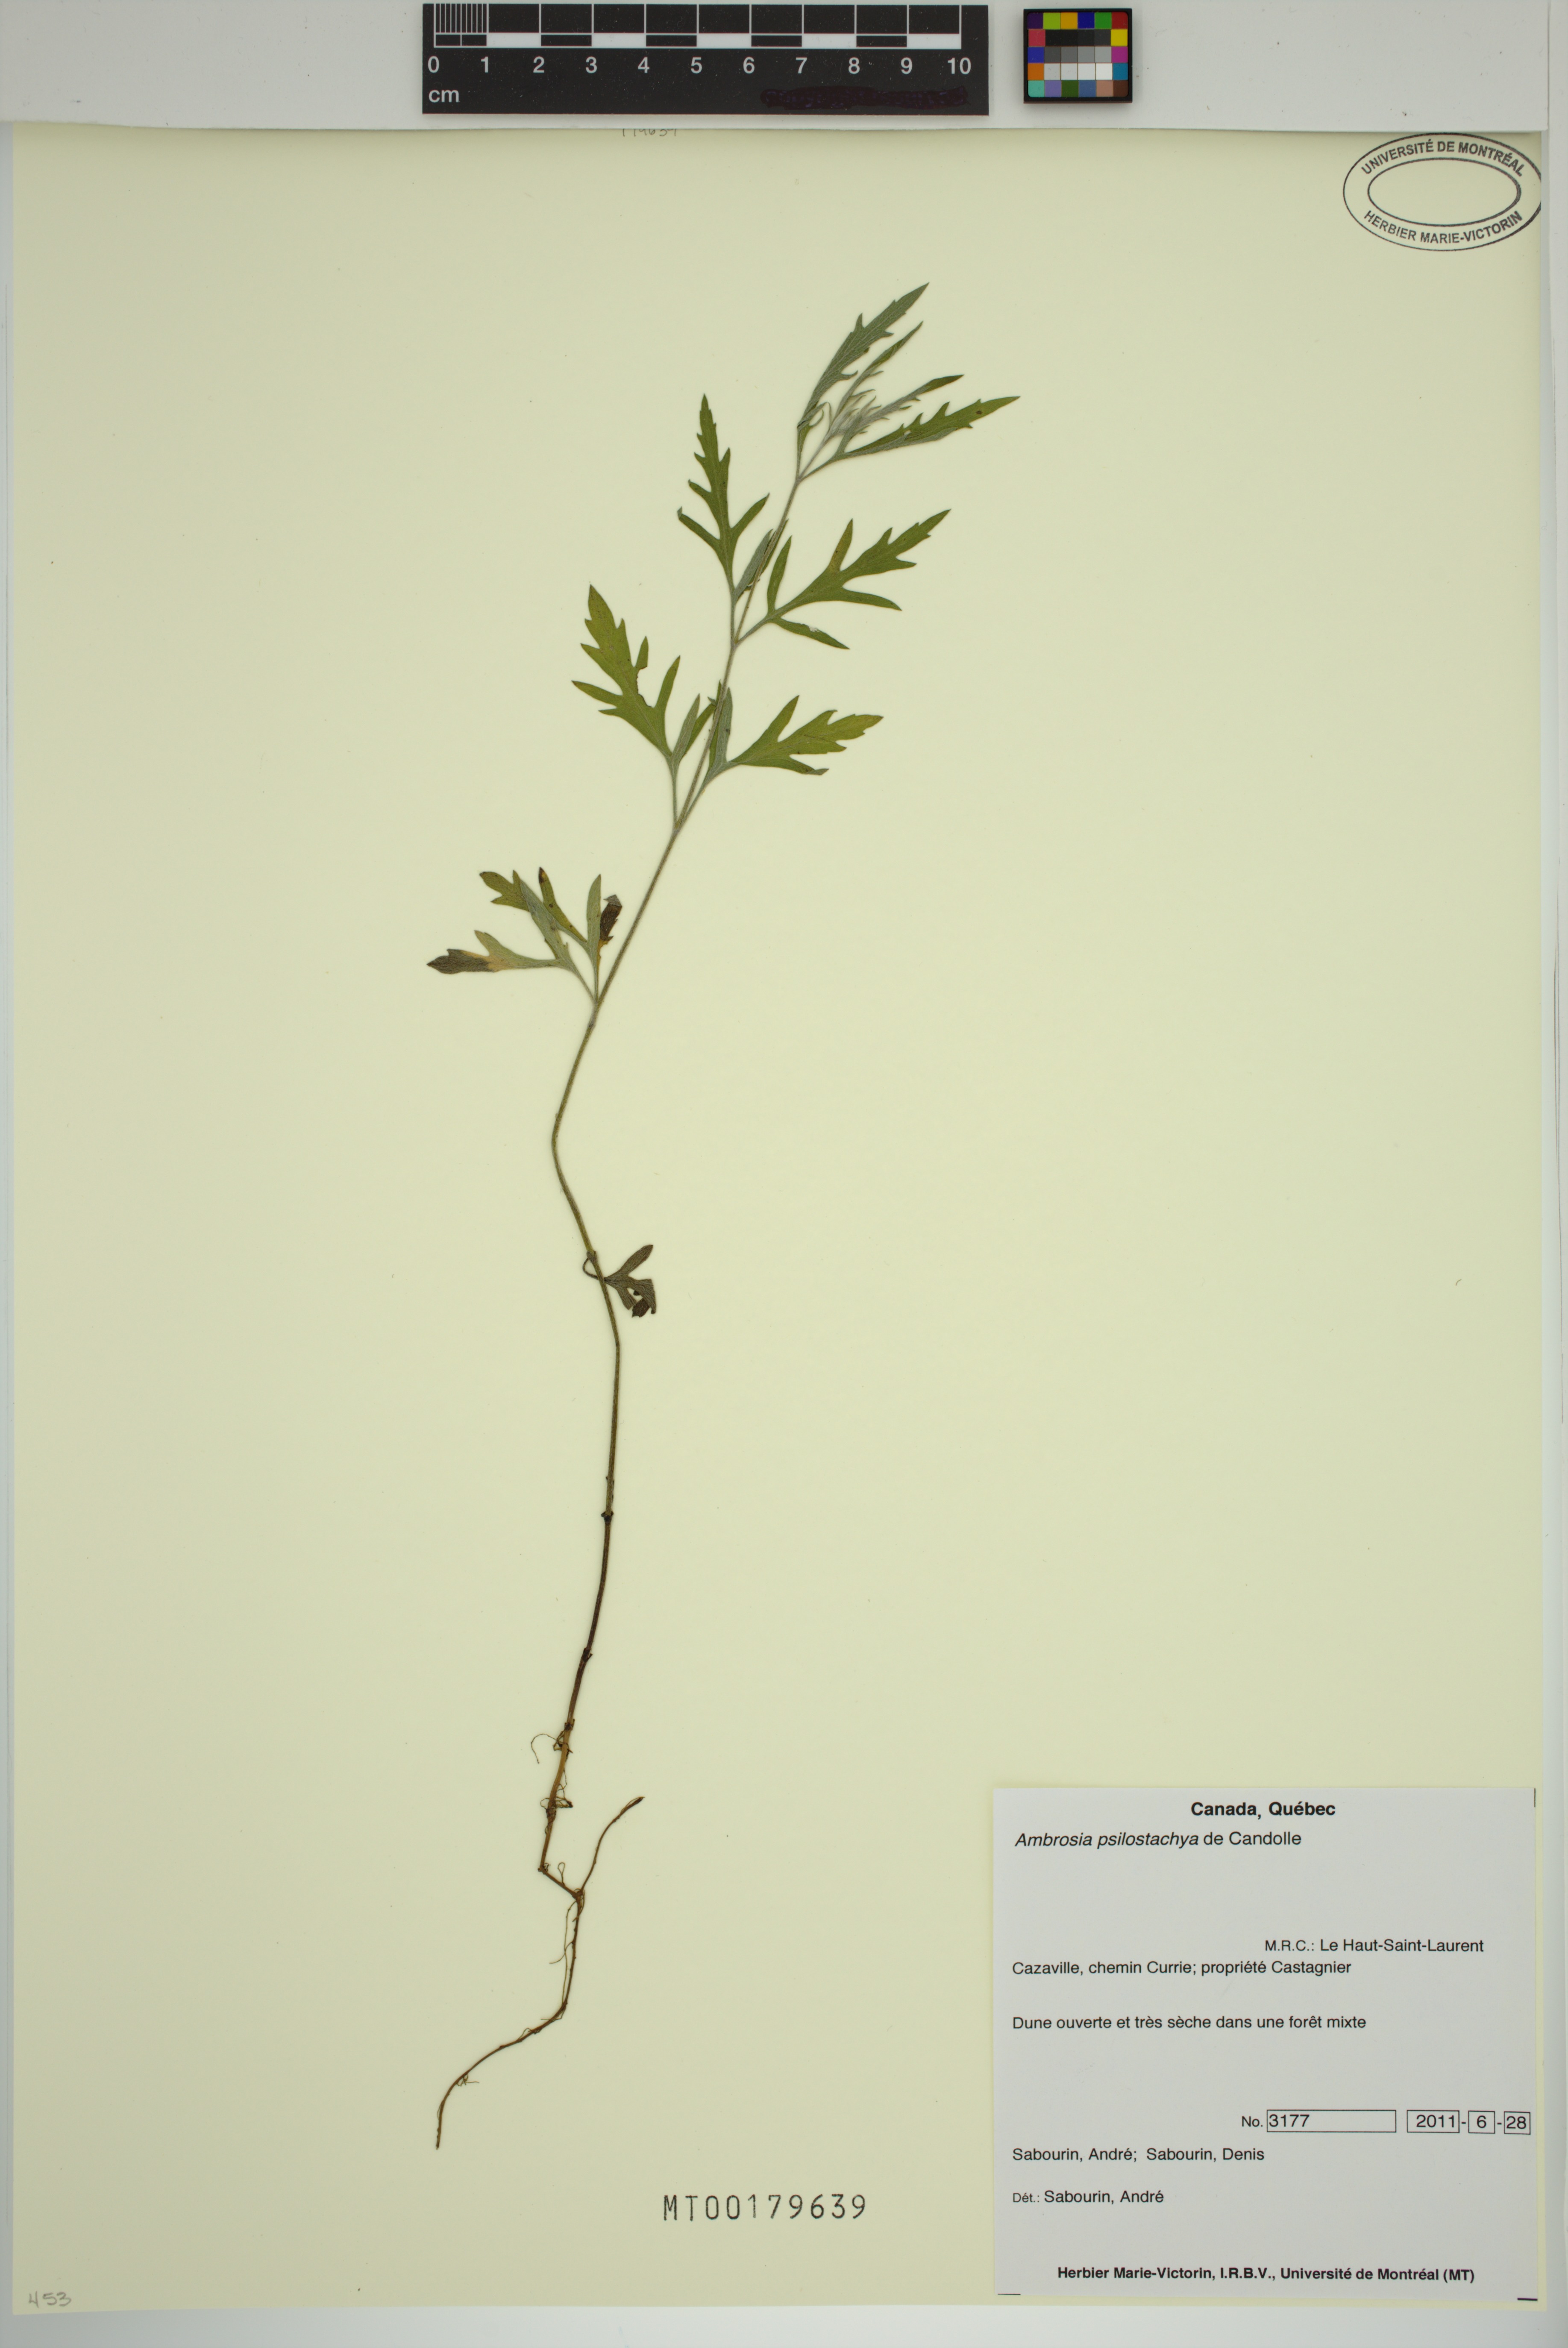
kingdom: Plantae
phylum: Tracheophyta
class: Magnoliopsida
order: Asterales
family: Asteraceae
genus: Ambrosia
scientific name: Ambrosia psilostachya
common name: Perennial ragweed
